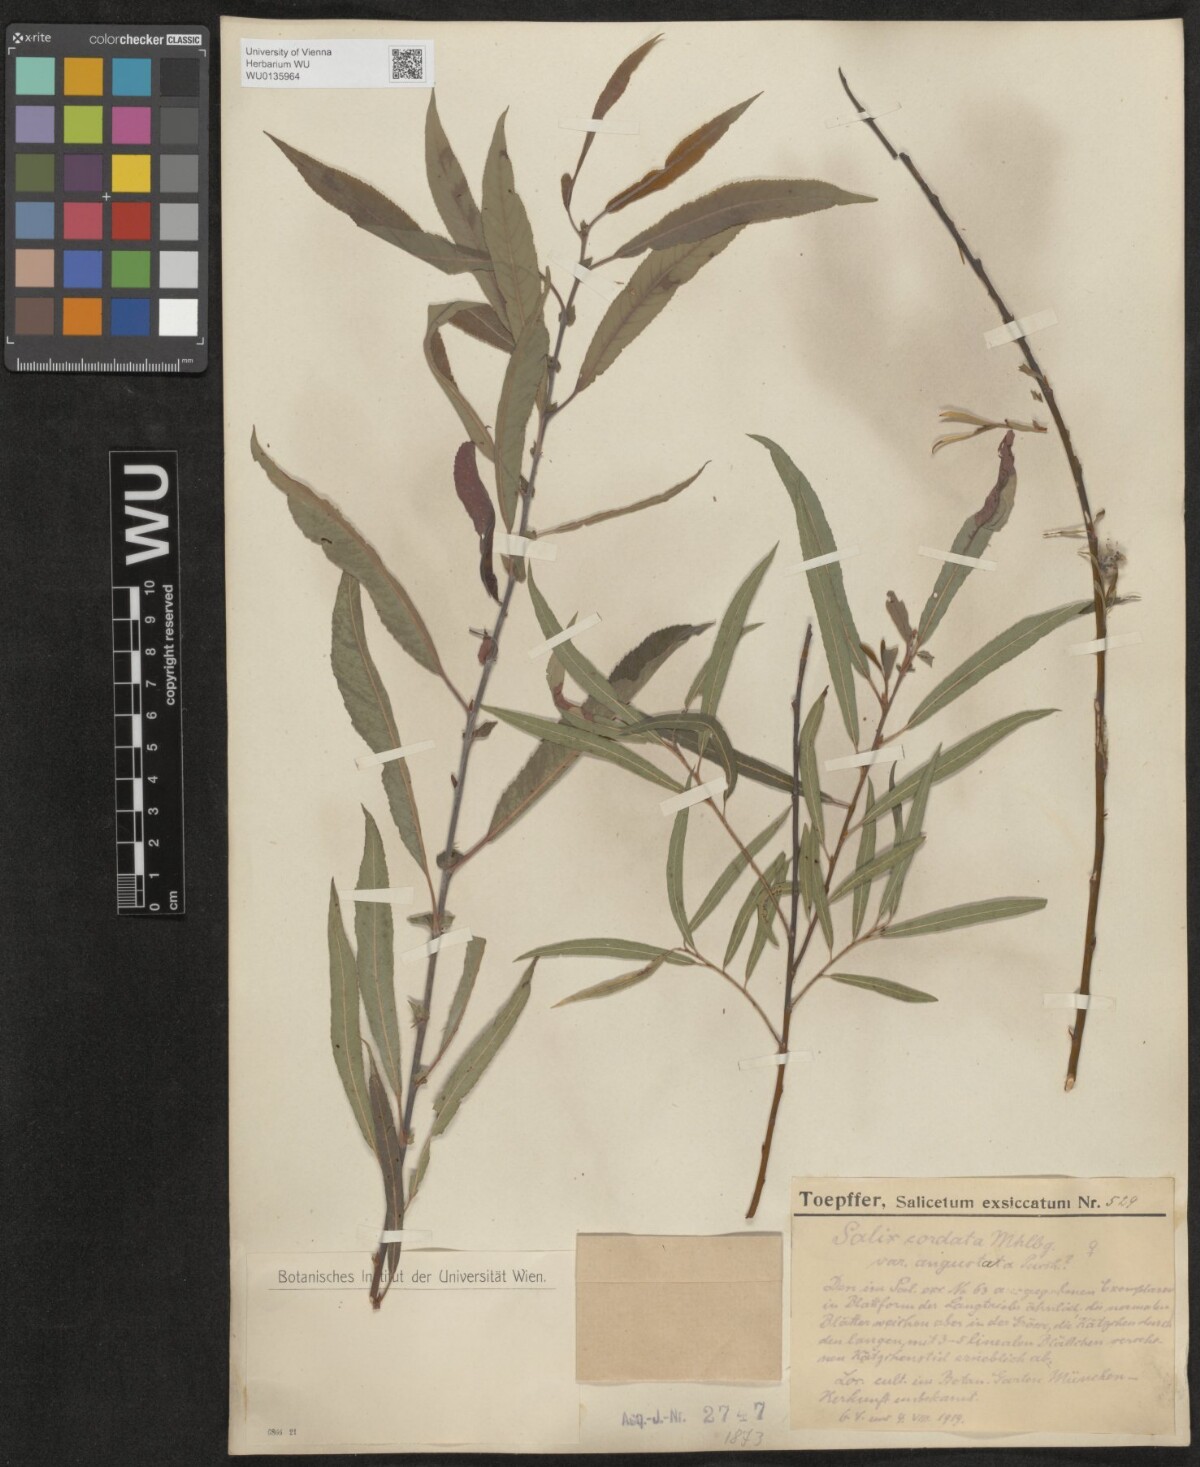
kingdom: Plantae
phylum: Tracheophyta
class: Magnoliopsida
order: Malpighiales
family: Salicaceae
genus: Salix
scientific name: Salix cordata
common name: Heart-leaf willow
